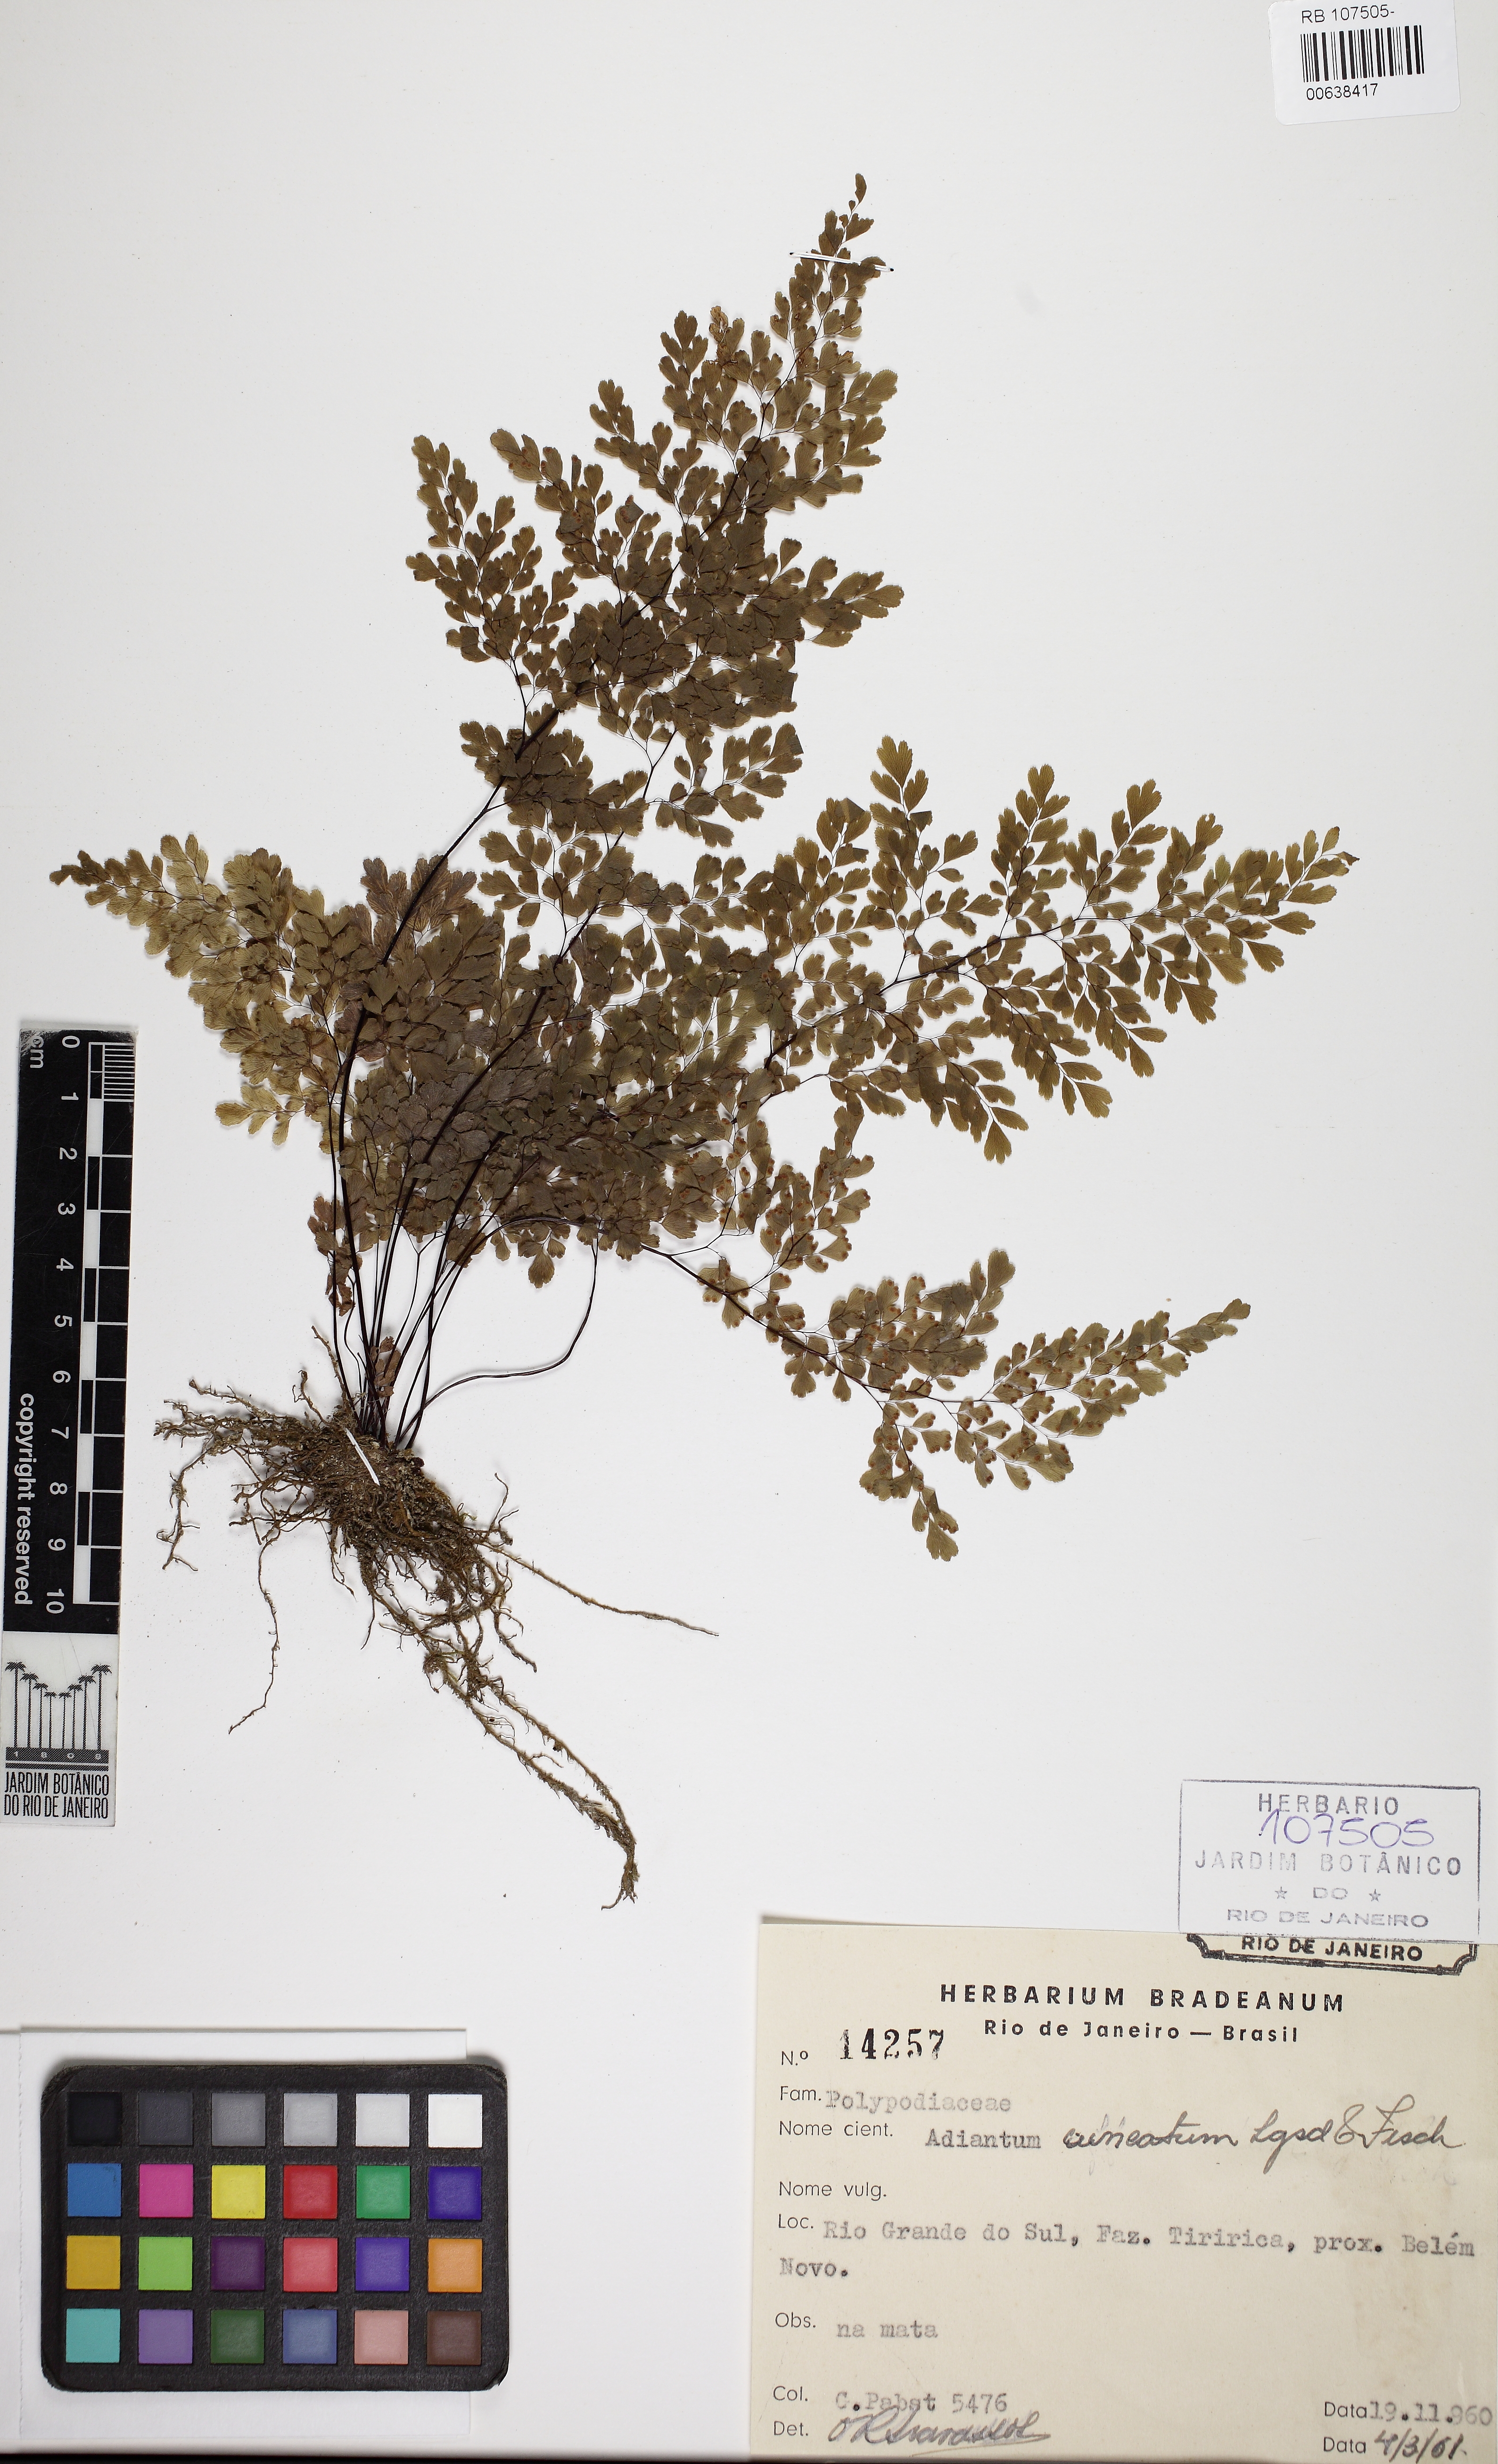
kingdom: Plantae
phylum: Tracheophyta
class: Polypodiopsida
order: Polypodiales
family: Pteridaceae
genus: Adiantum
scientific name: Adiantum raddianum
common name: Delta maidenhair fern
